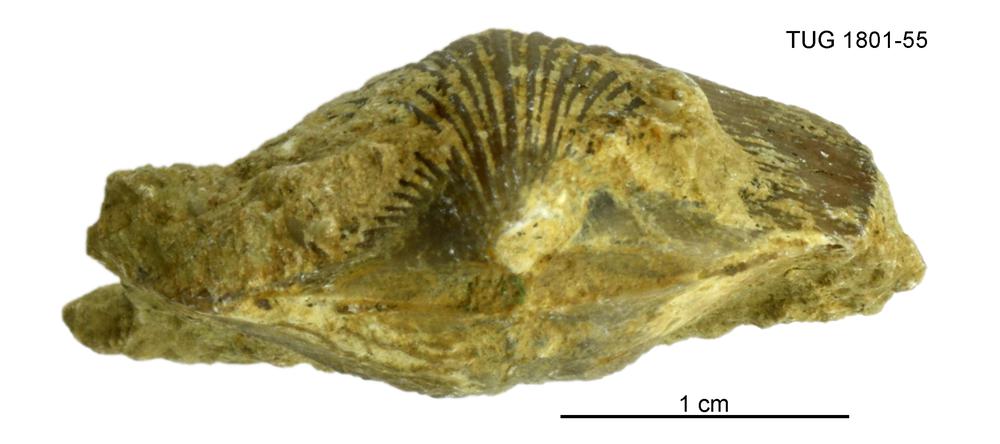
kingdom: Animalia
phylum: Brachiopoda
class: Rhynchonellata
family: Harknessellidae
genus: Horderleyella
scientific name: Horderleyella
